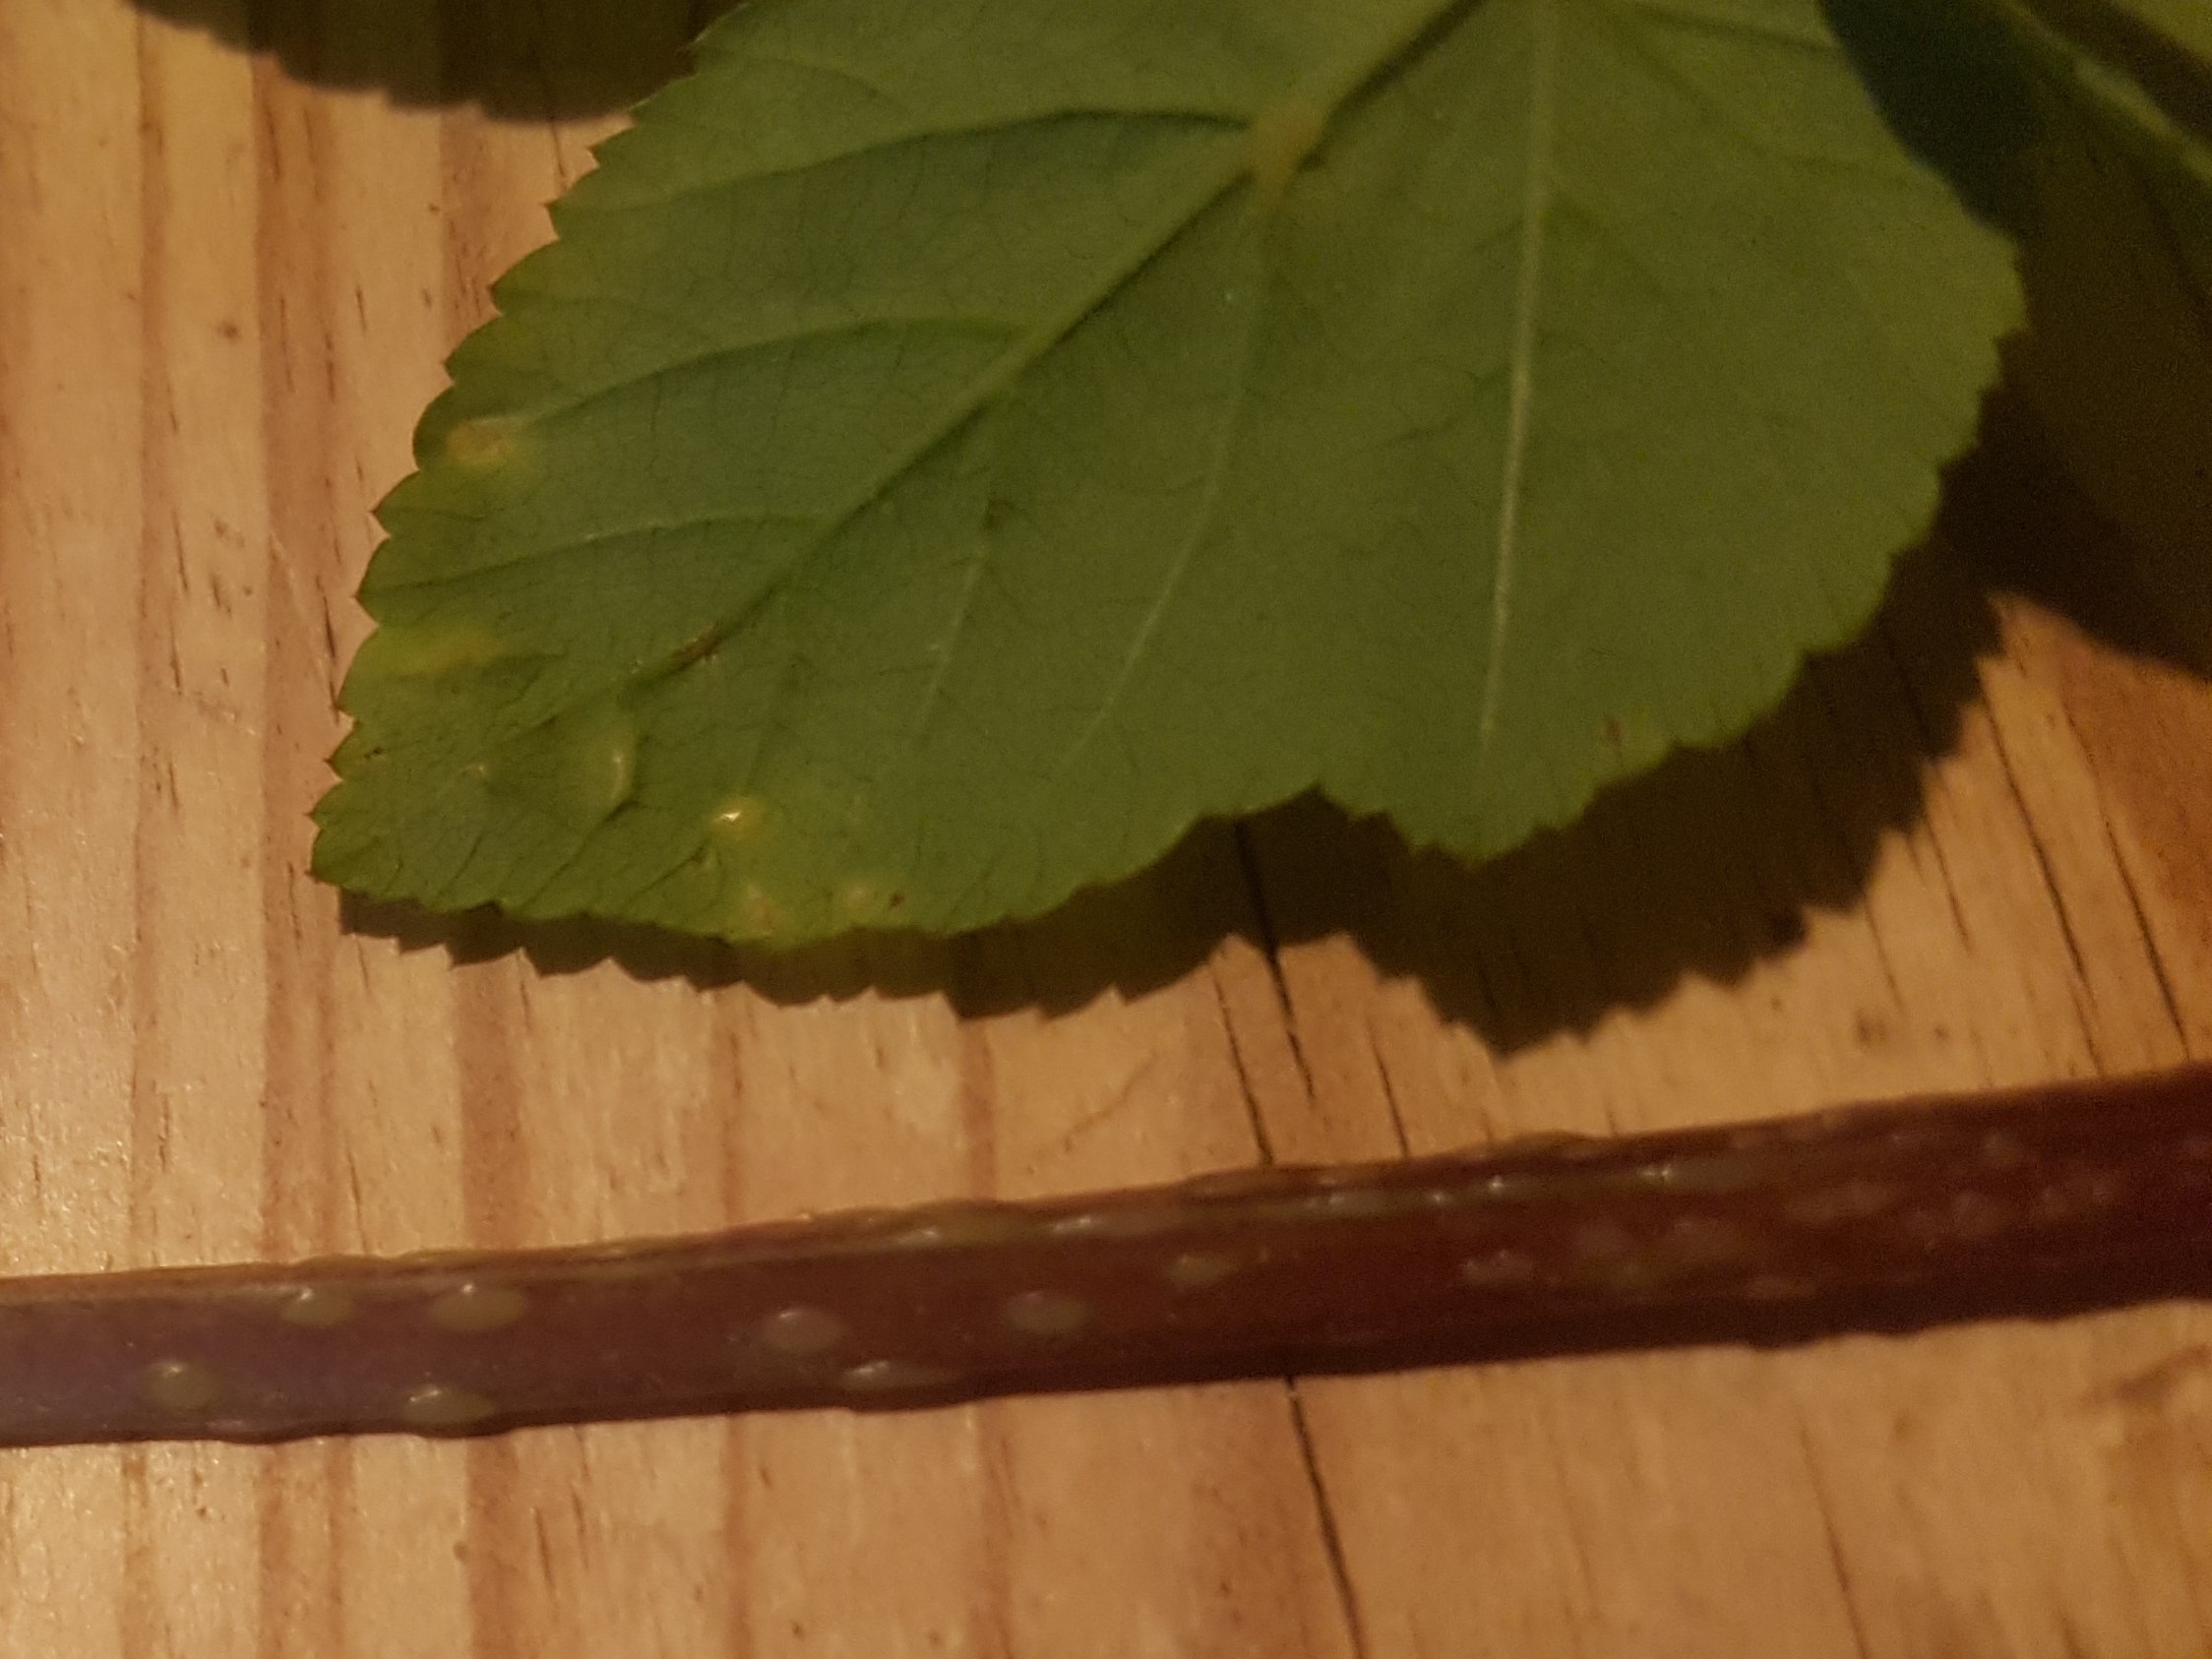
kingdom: Fungi
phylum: Ascomycota
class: Taphrinomycetes
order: Taphrinales
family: Taphrinaceae
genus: Protomyces
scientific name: Protomyces macrosporus
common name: skvalderkål-vablesæk
